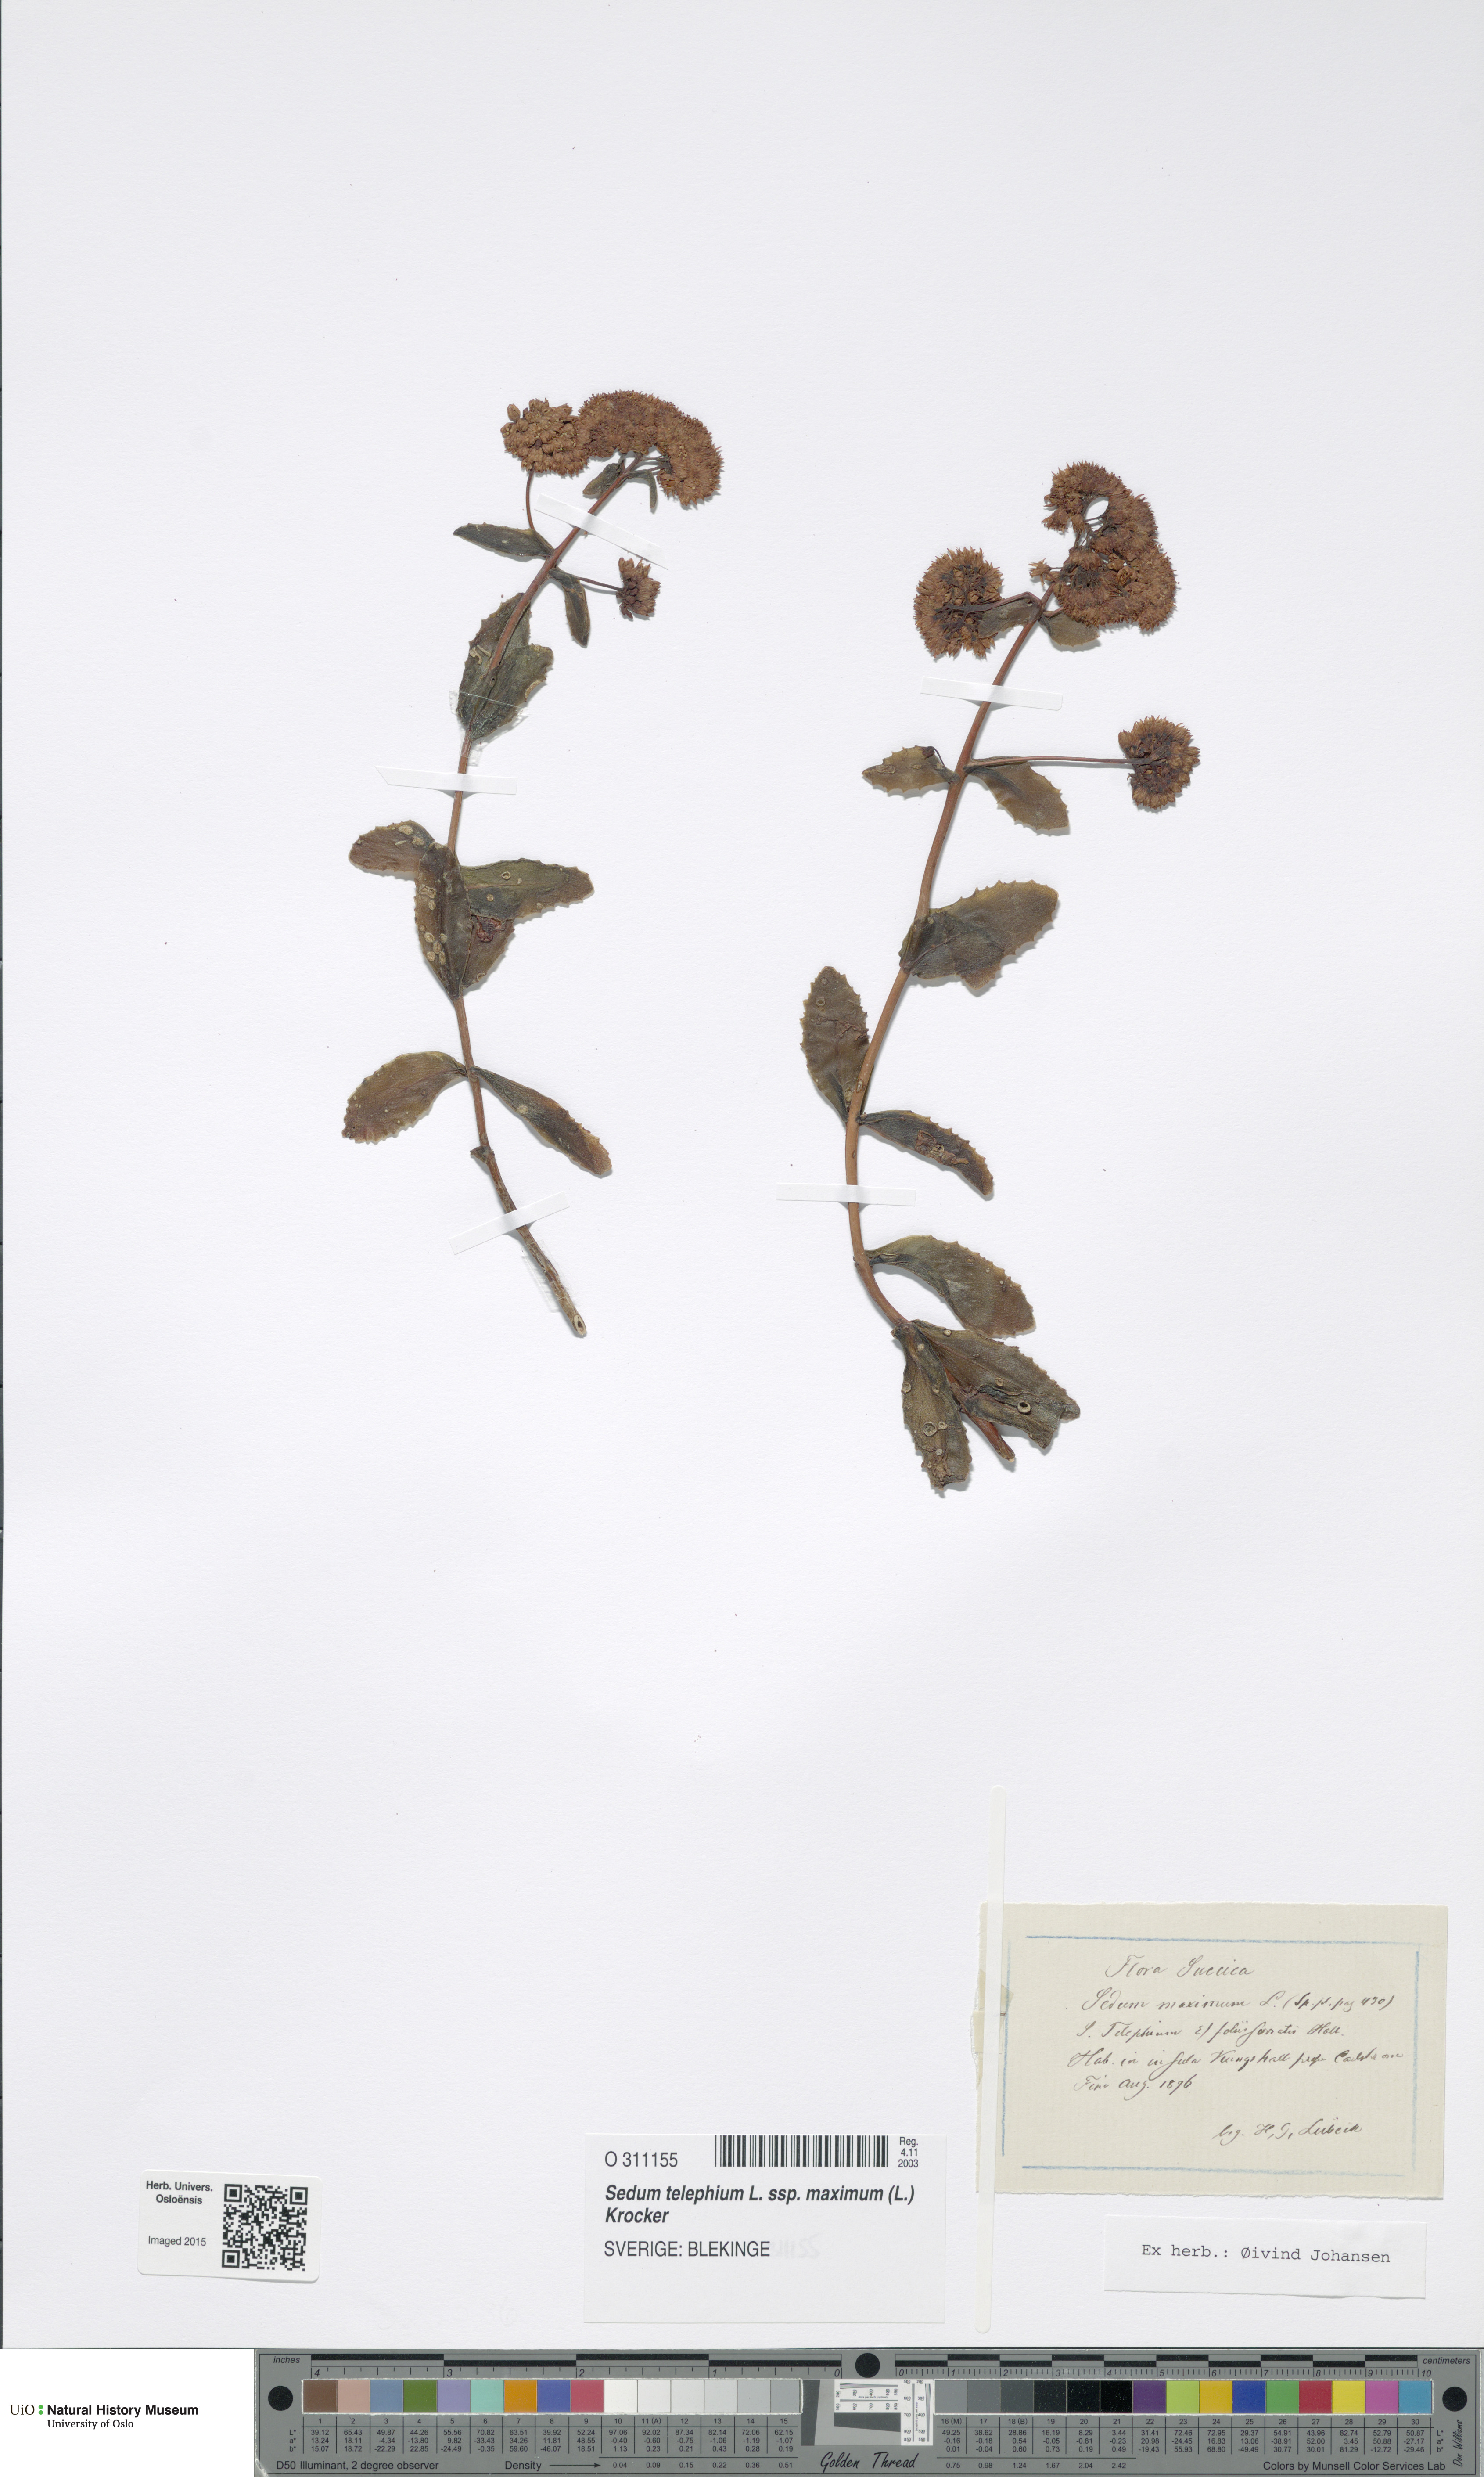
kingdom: Plantae
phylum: Tracheophyta
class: Magnoliopsida
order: Saxifragales
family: Crassulaceae
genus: Hylotelephium
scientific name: Hylotelephium maximum
